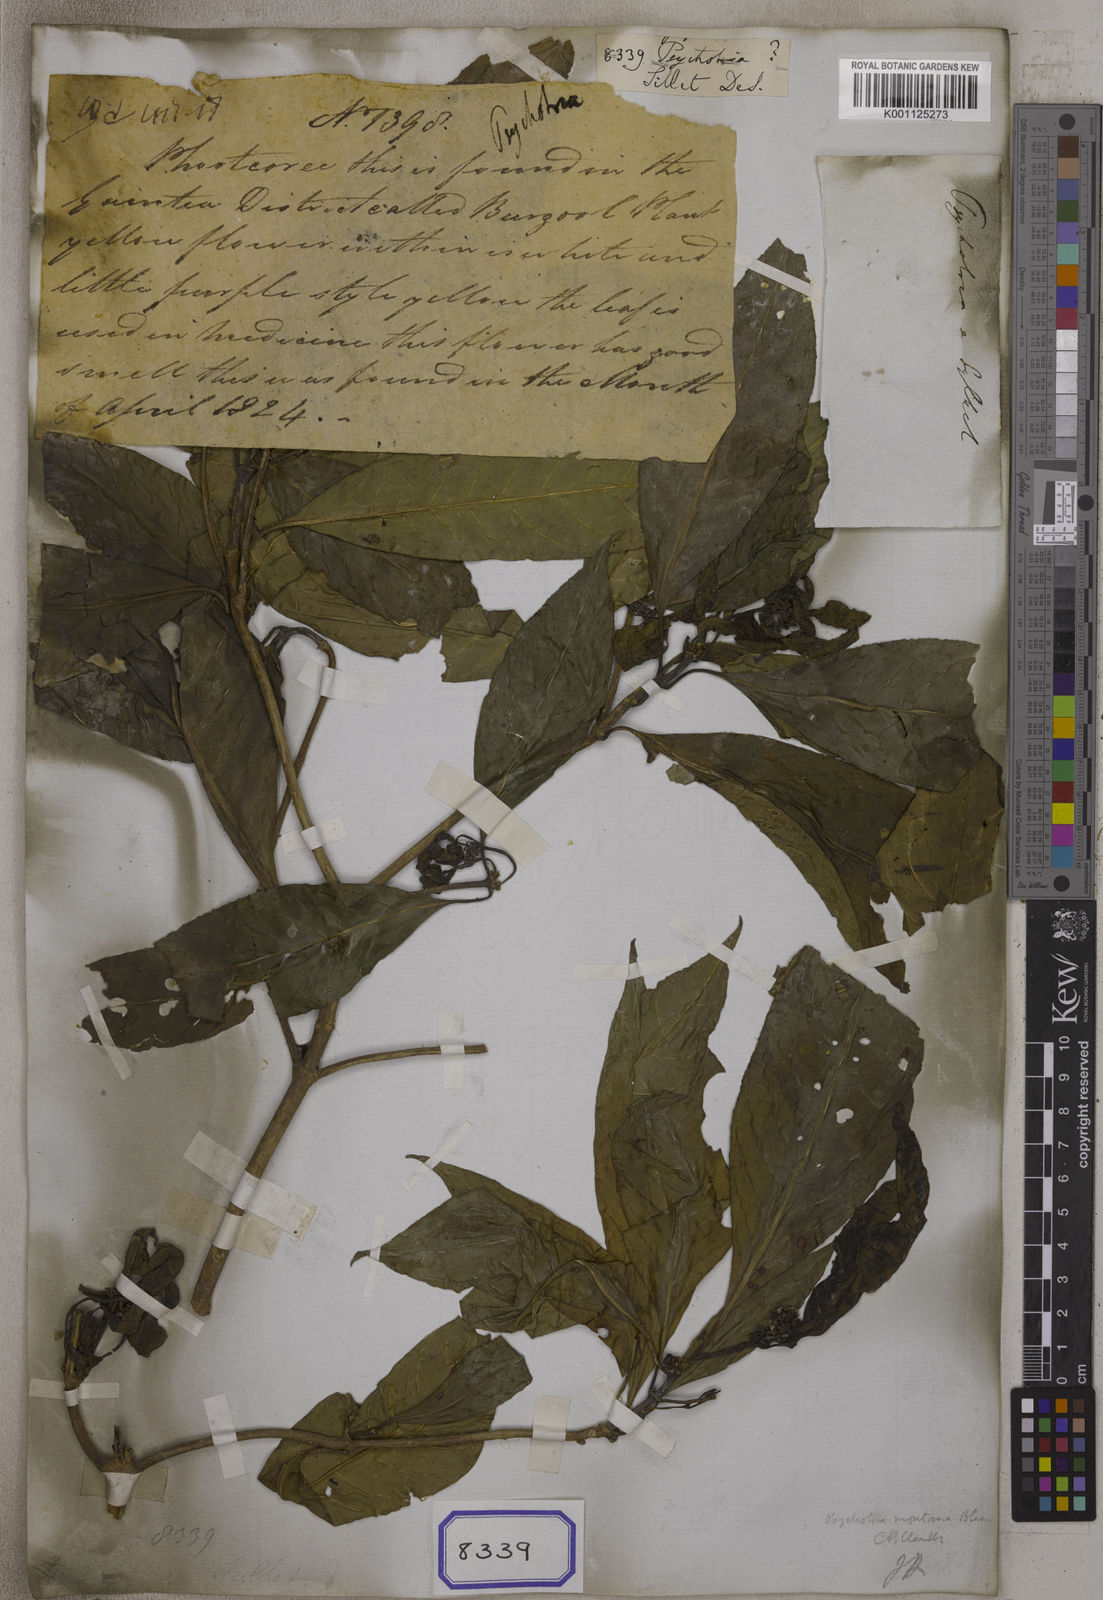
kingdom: Plantae
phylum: Tracheophyta
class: Magnoliopsida
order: Gentianales
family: Rubiaceae
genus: Psychotria
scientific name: Psychotria
